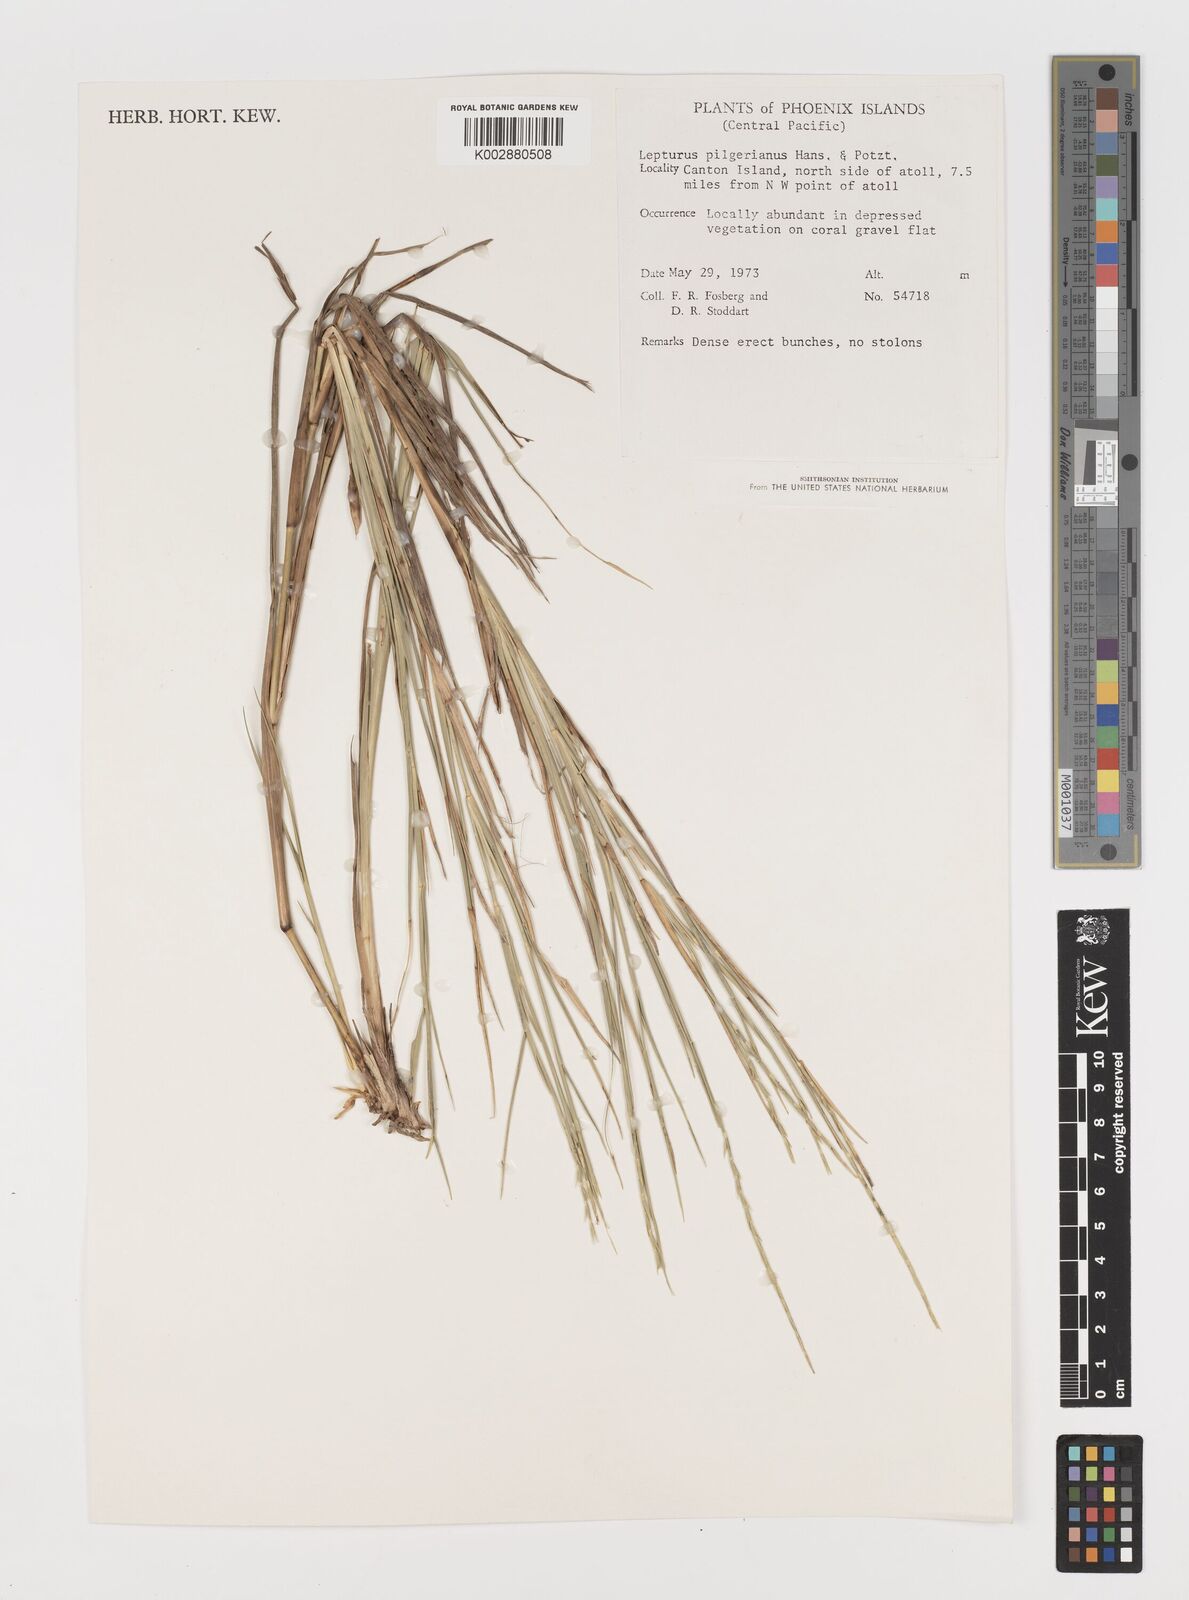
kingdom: Plantae
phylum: Tracheophyta
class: Liliopsida
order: Poales
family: Poaceae
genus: Lepturus
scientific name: Lepturus repens
